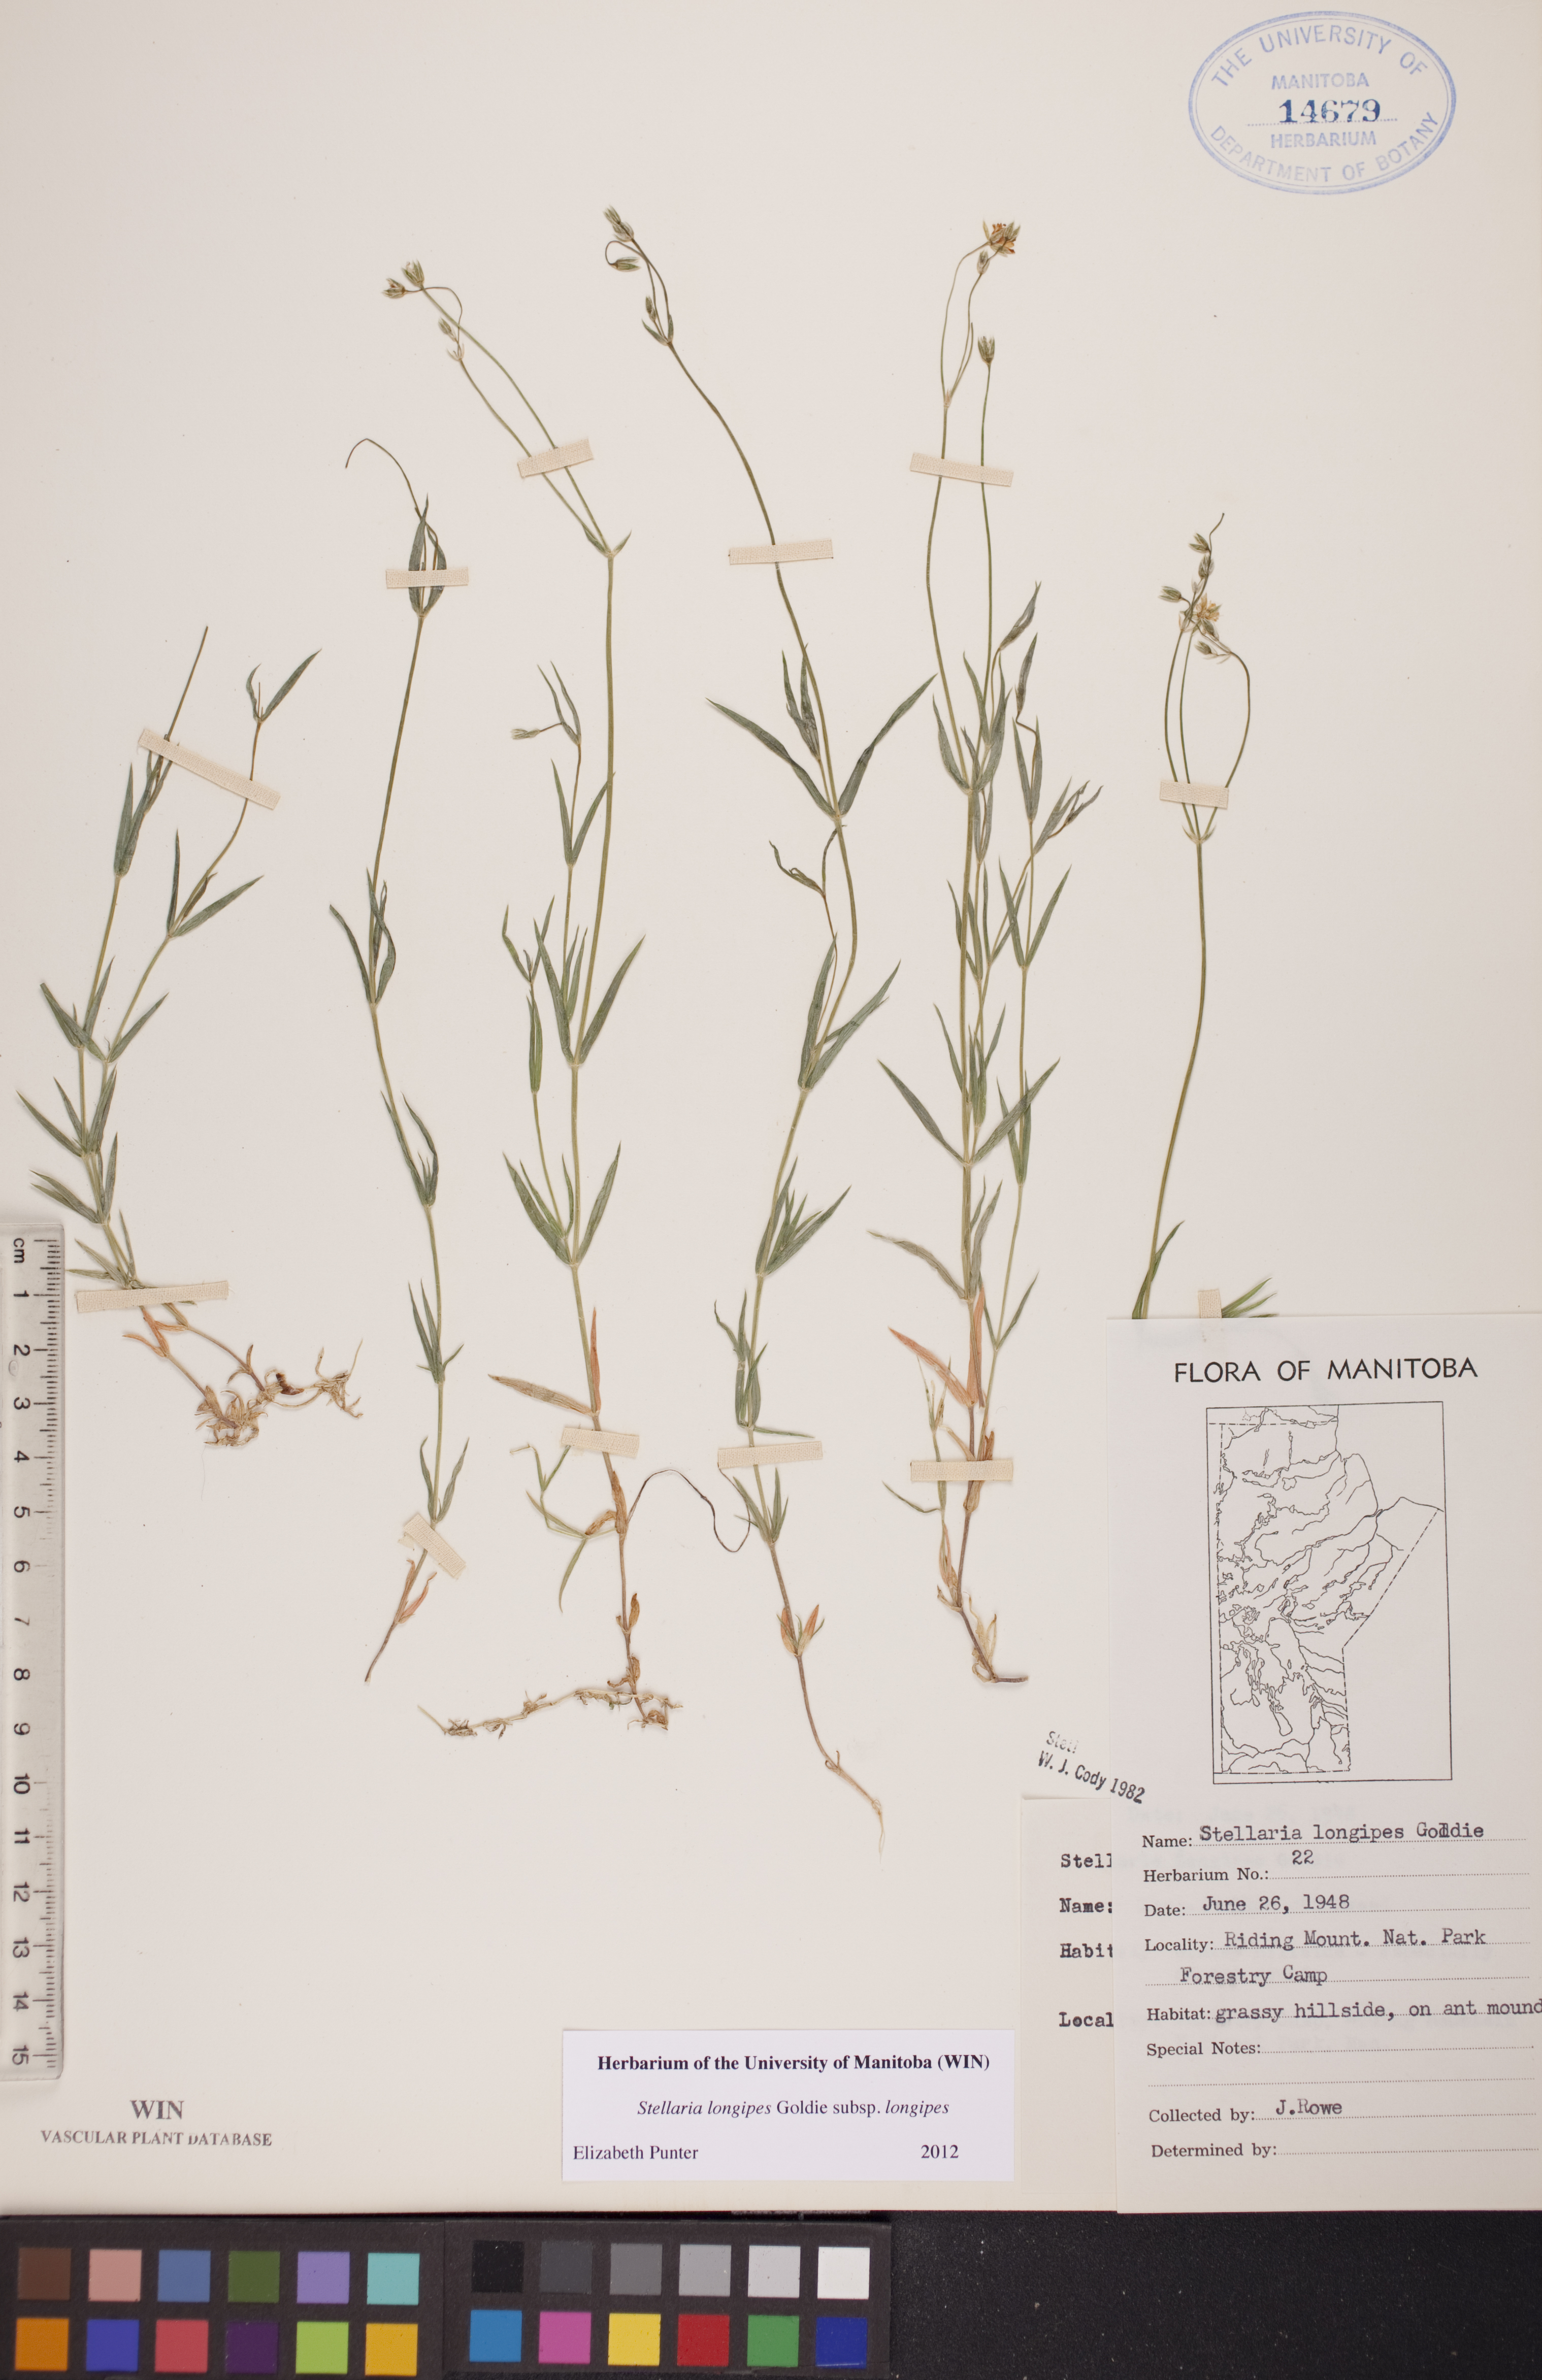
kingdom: Plantae
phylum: Tracheophyta
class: Magnoliopsida
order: Caryophyllales
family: Caryophyllaceae
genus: Stellaria
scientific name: Stellaria longipes
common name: Goldie's starwort
